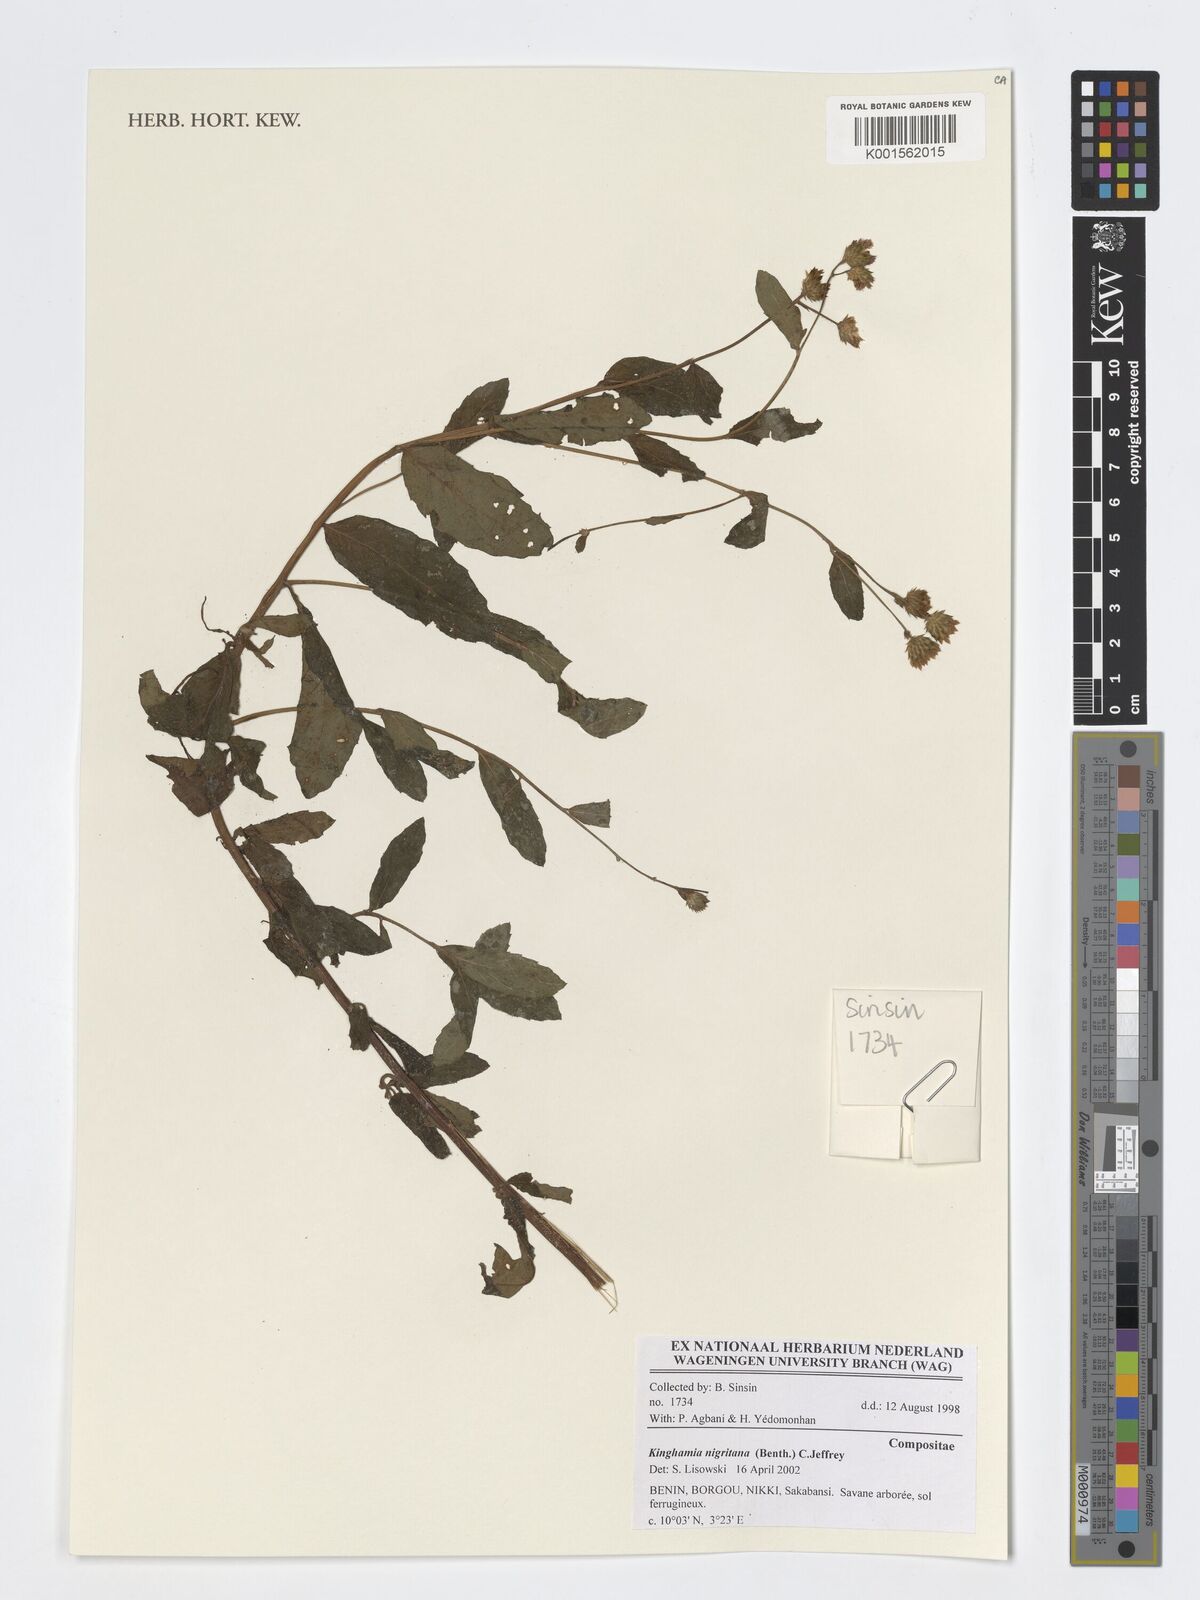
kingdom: Plantae
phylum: Tracheophyta
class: Magnoliopsida
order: Asterales
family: Asteraceae
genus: Kinghamia
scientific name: Kinghamia nigritana
